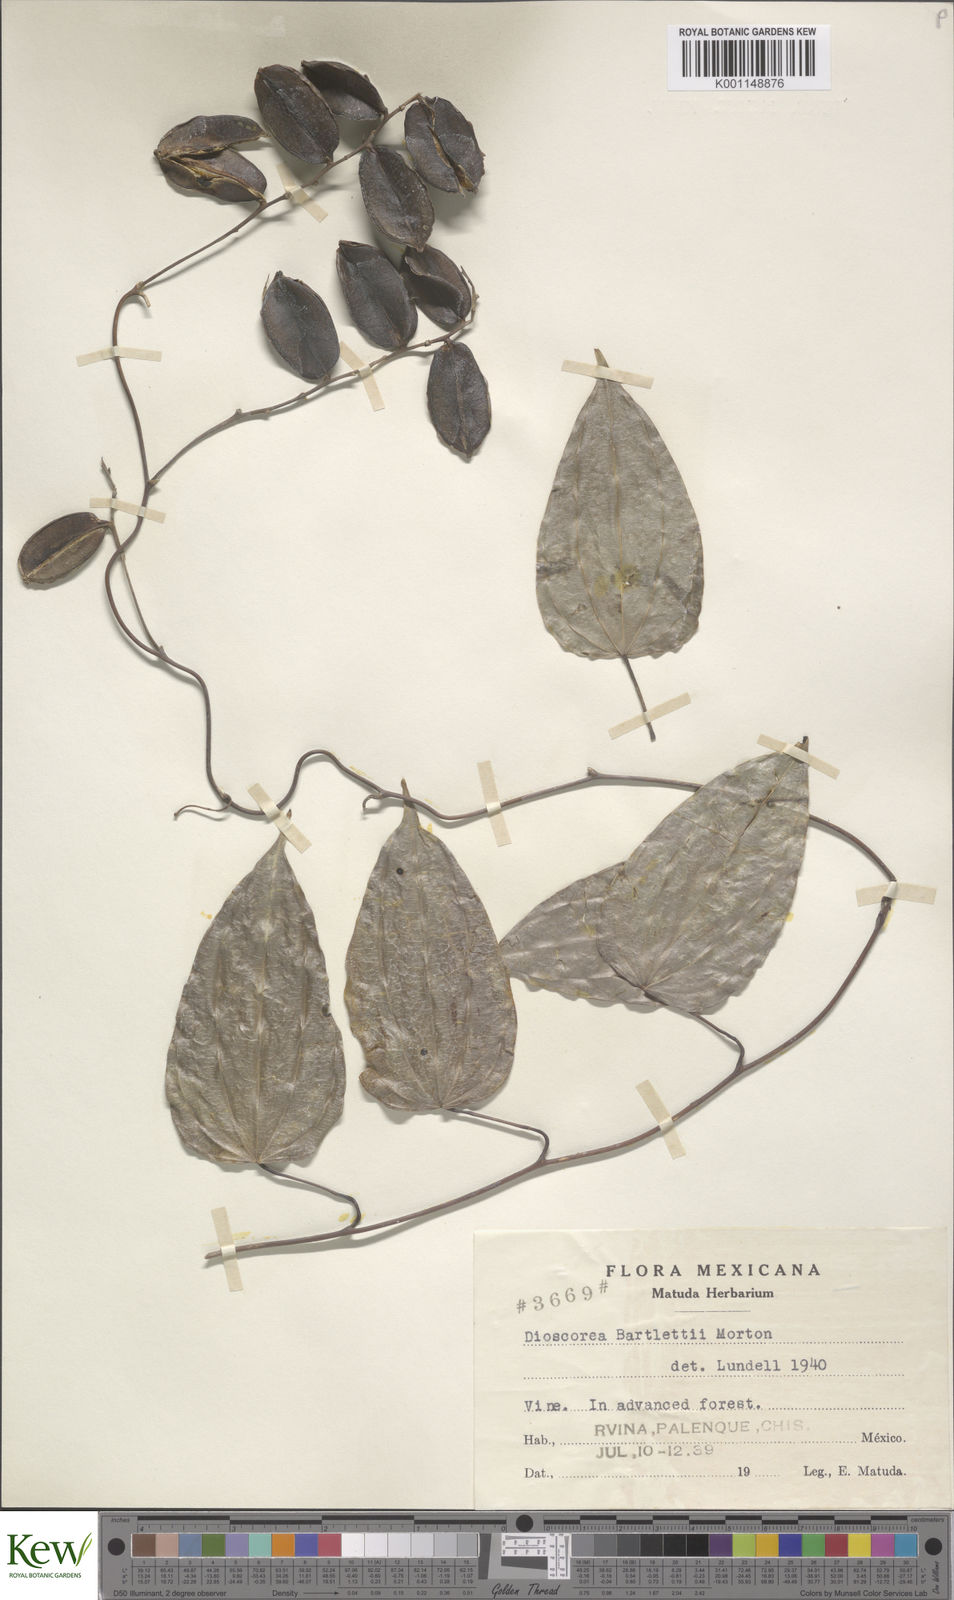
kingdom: Plantae
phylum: Tracheophyta
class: Liliopsida
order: Dioscoreales
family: Dioscoreaceae
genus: Dioscorea
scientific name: Dioscorea bartlettii
